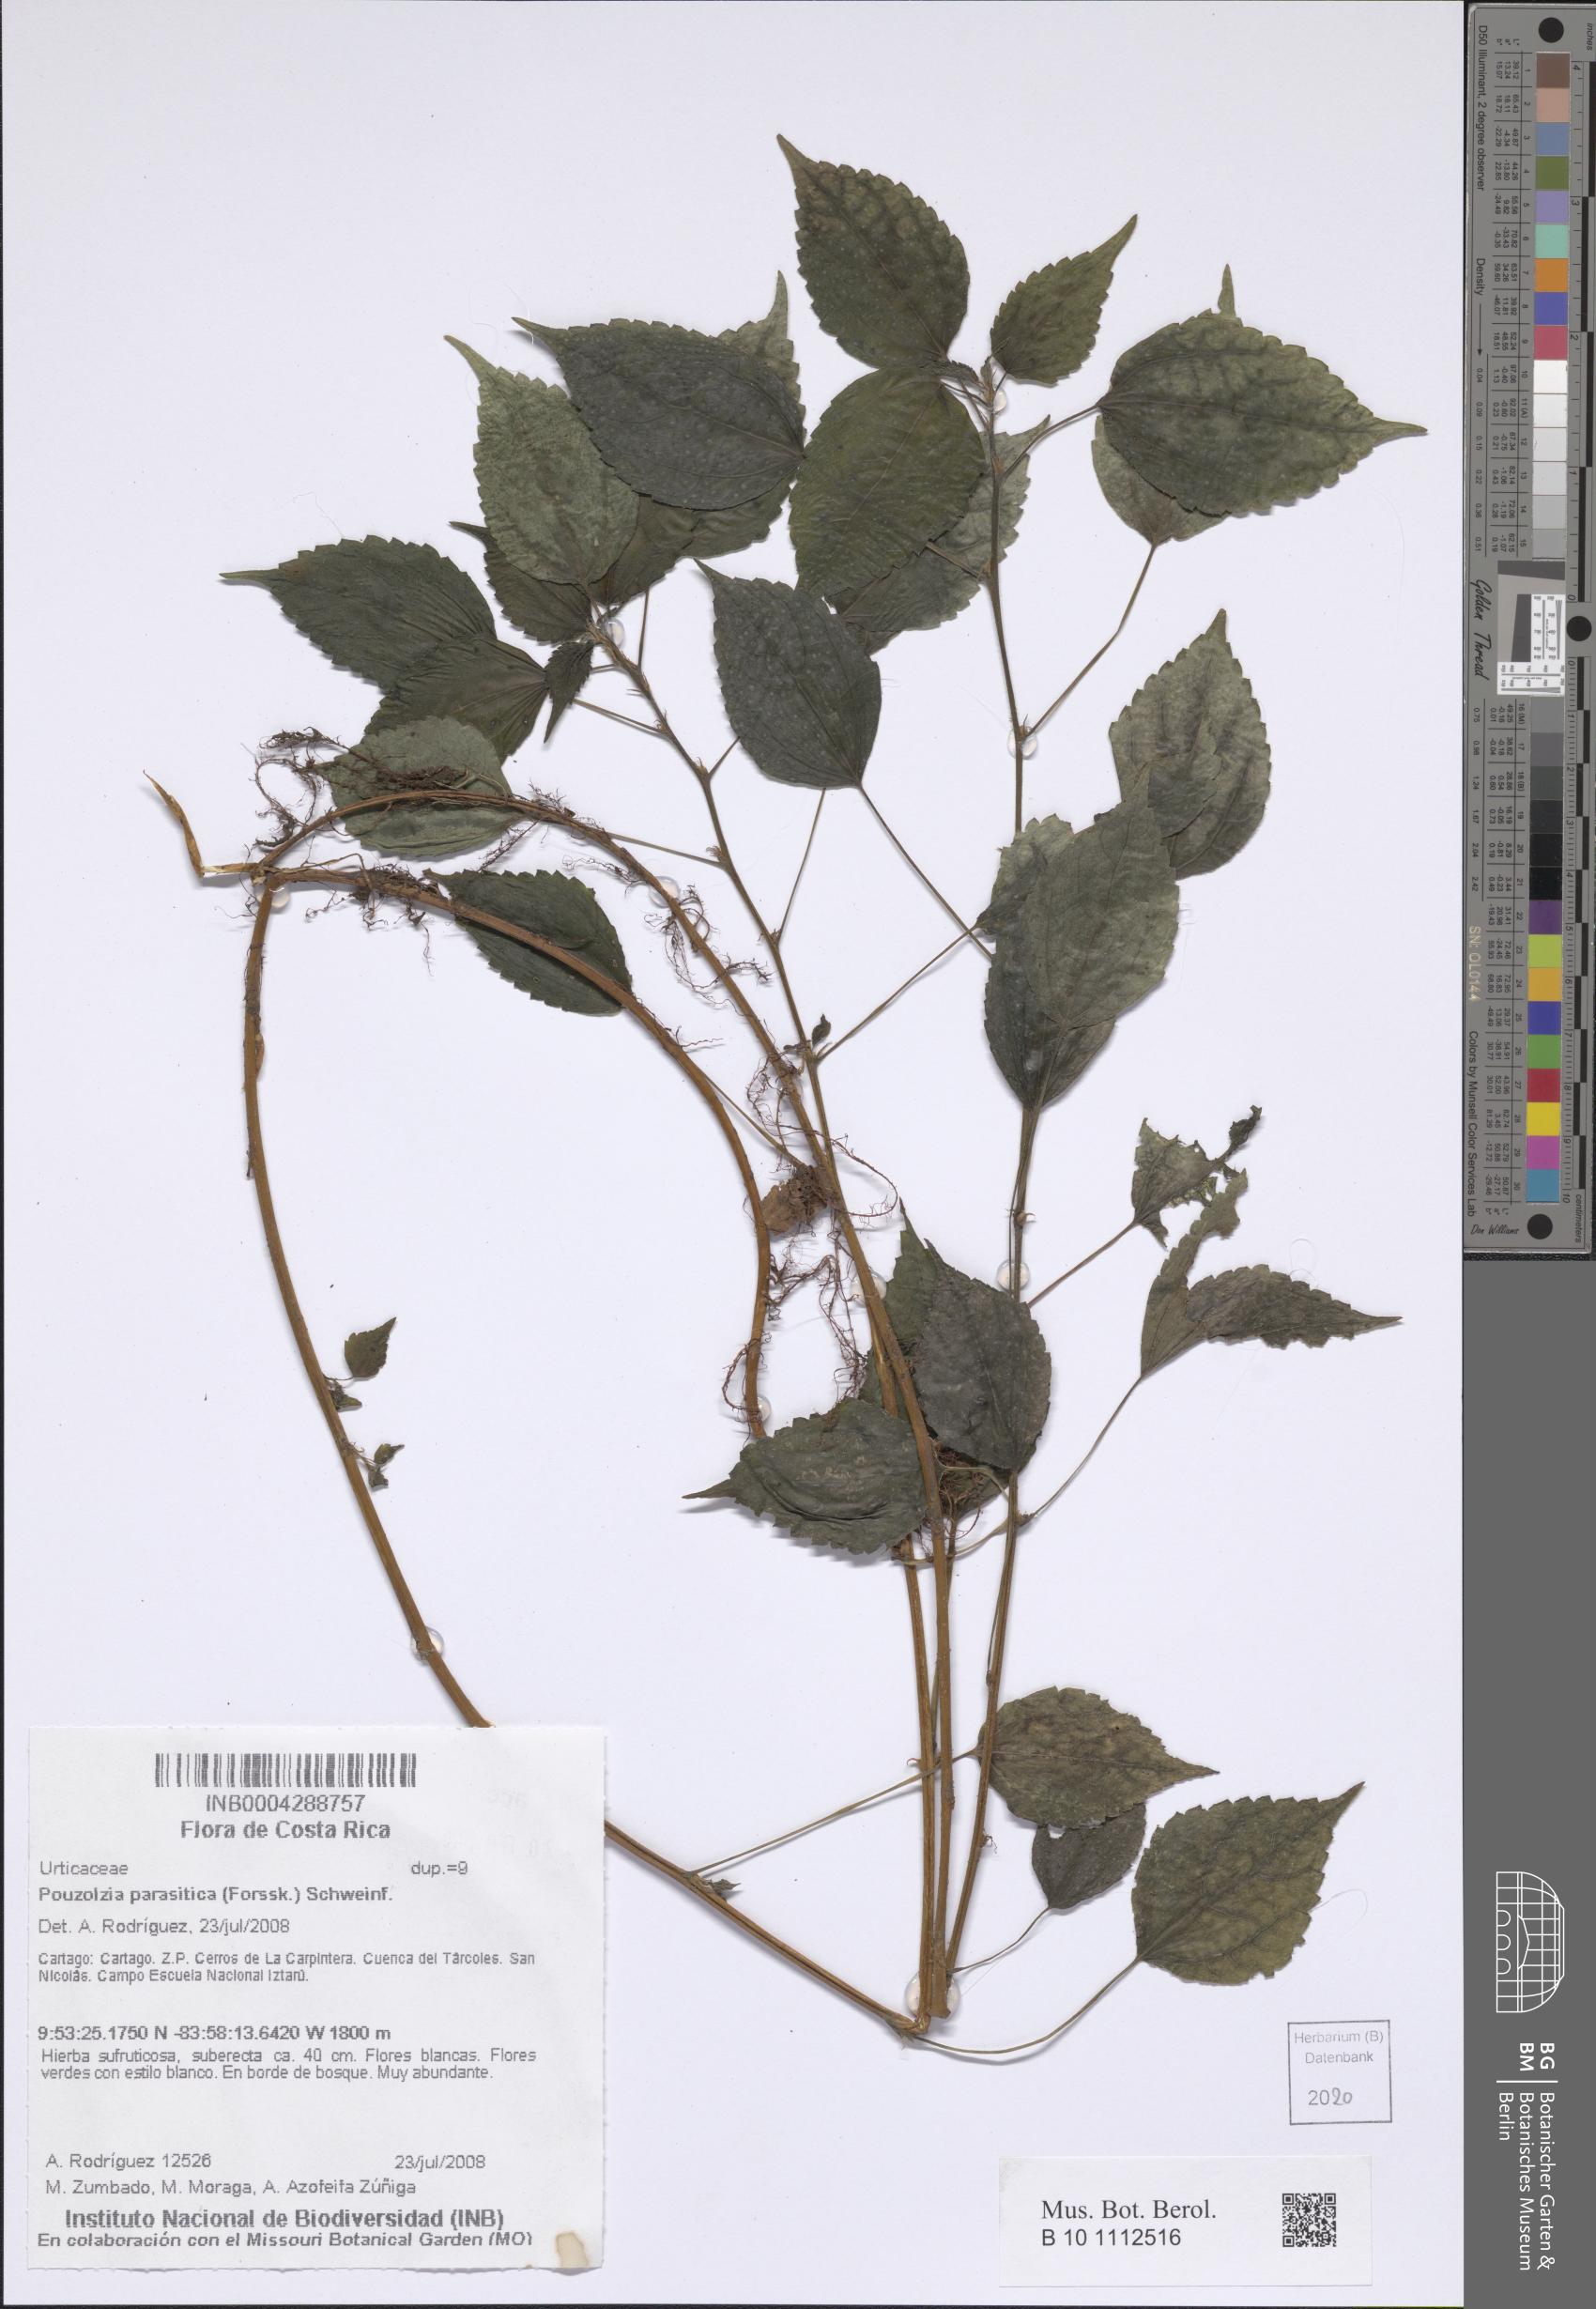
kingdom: Plantae
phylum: Tracheophyta
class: Magnoliopsida
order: Rosales
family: Urticaceae
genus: Pouzolzia
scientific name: Pouzolzia parasitica
